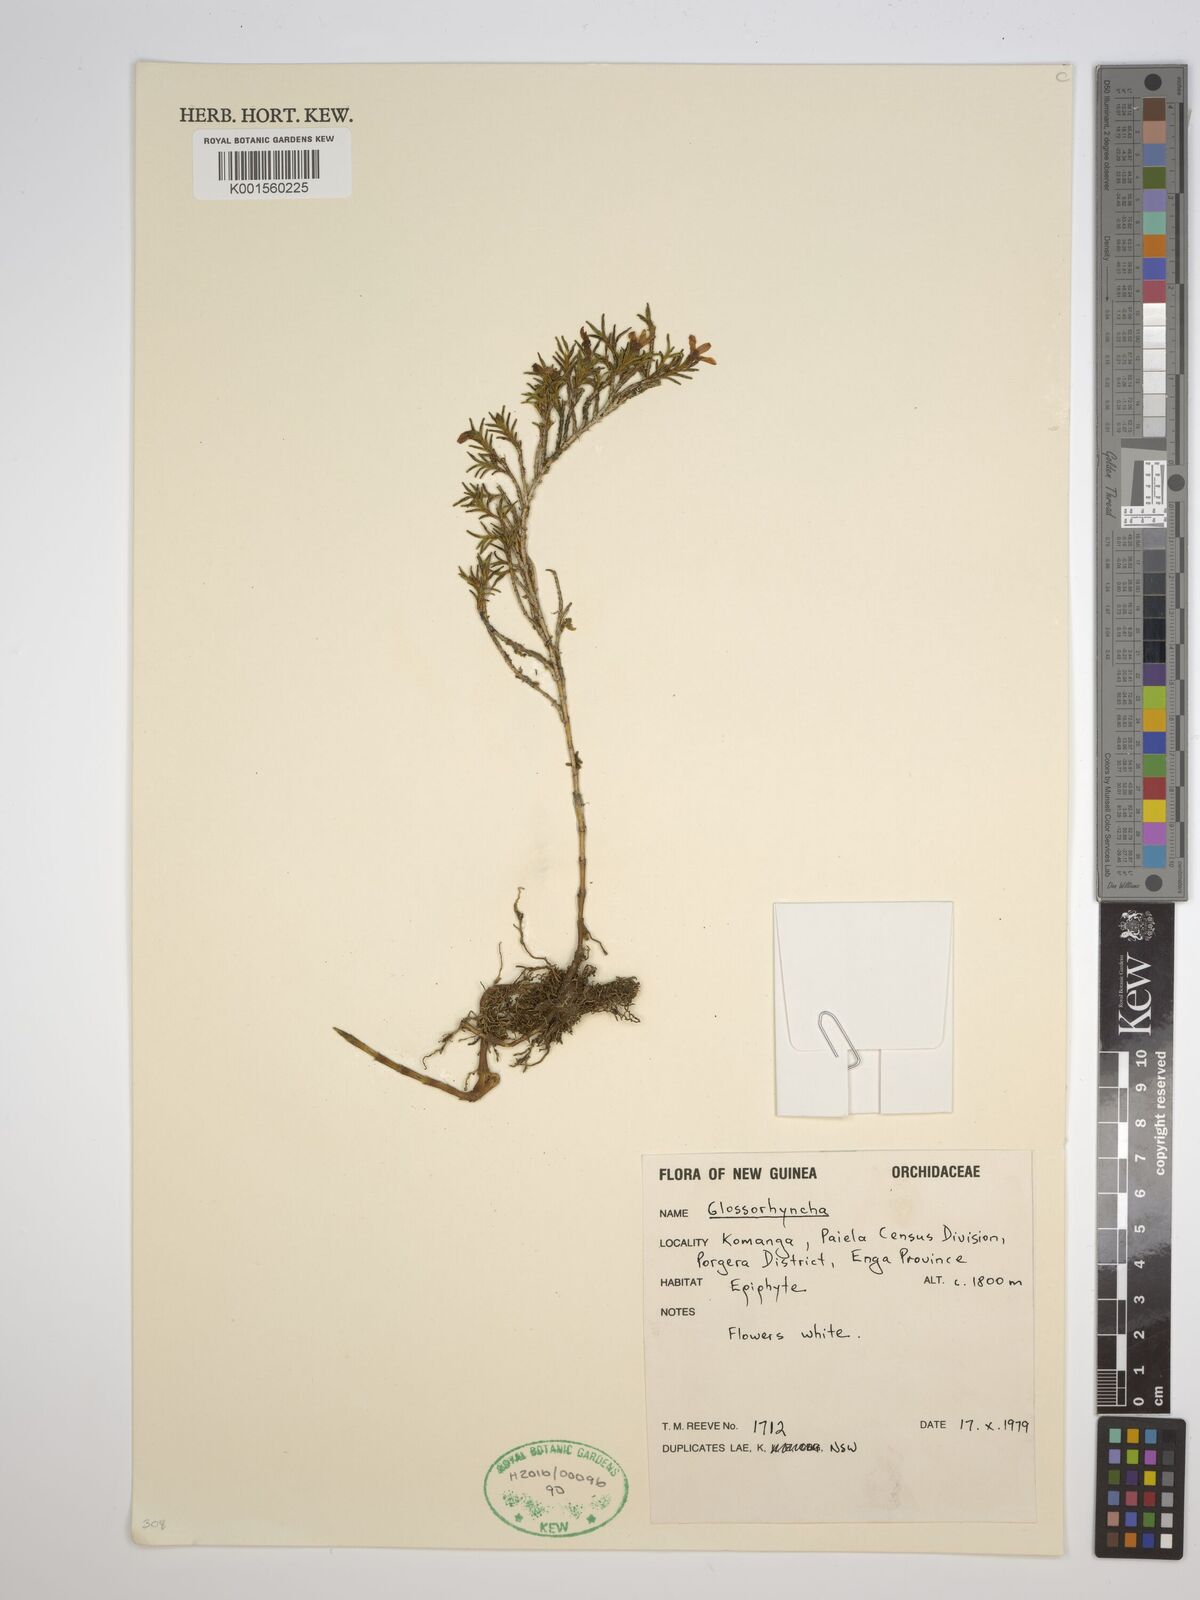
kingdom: Plantae
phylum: Tracheophyta
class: Liliopsida
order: Asparagales
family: Orchidaceae
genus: Glomera
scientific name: Glomera
